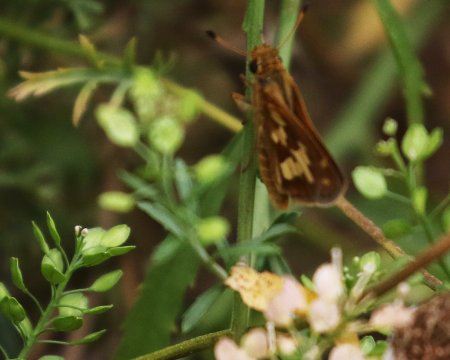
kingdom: Animalia
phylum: Arthropoda
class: Insecta
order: Lepidoptera
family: Hesperiidae
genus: Polites
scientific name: Polites coras
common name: Peck's Skipper
